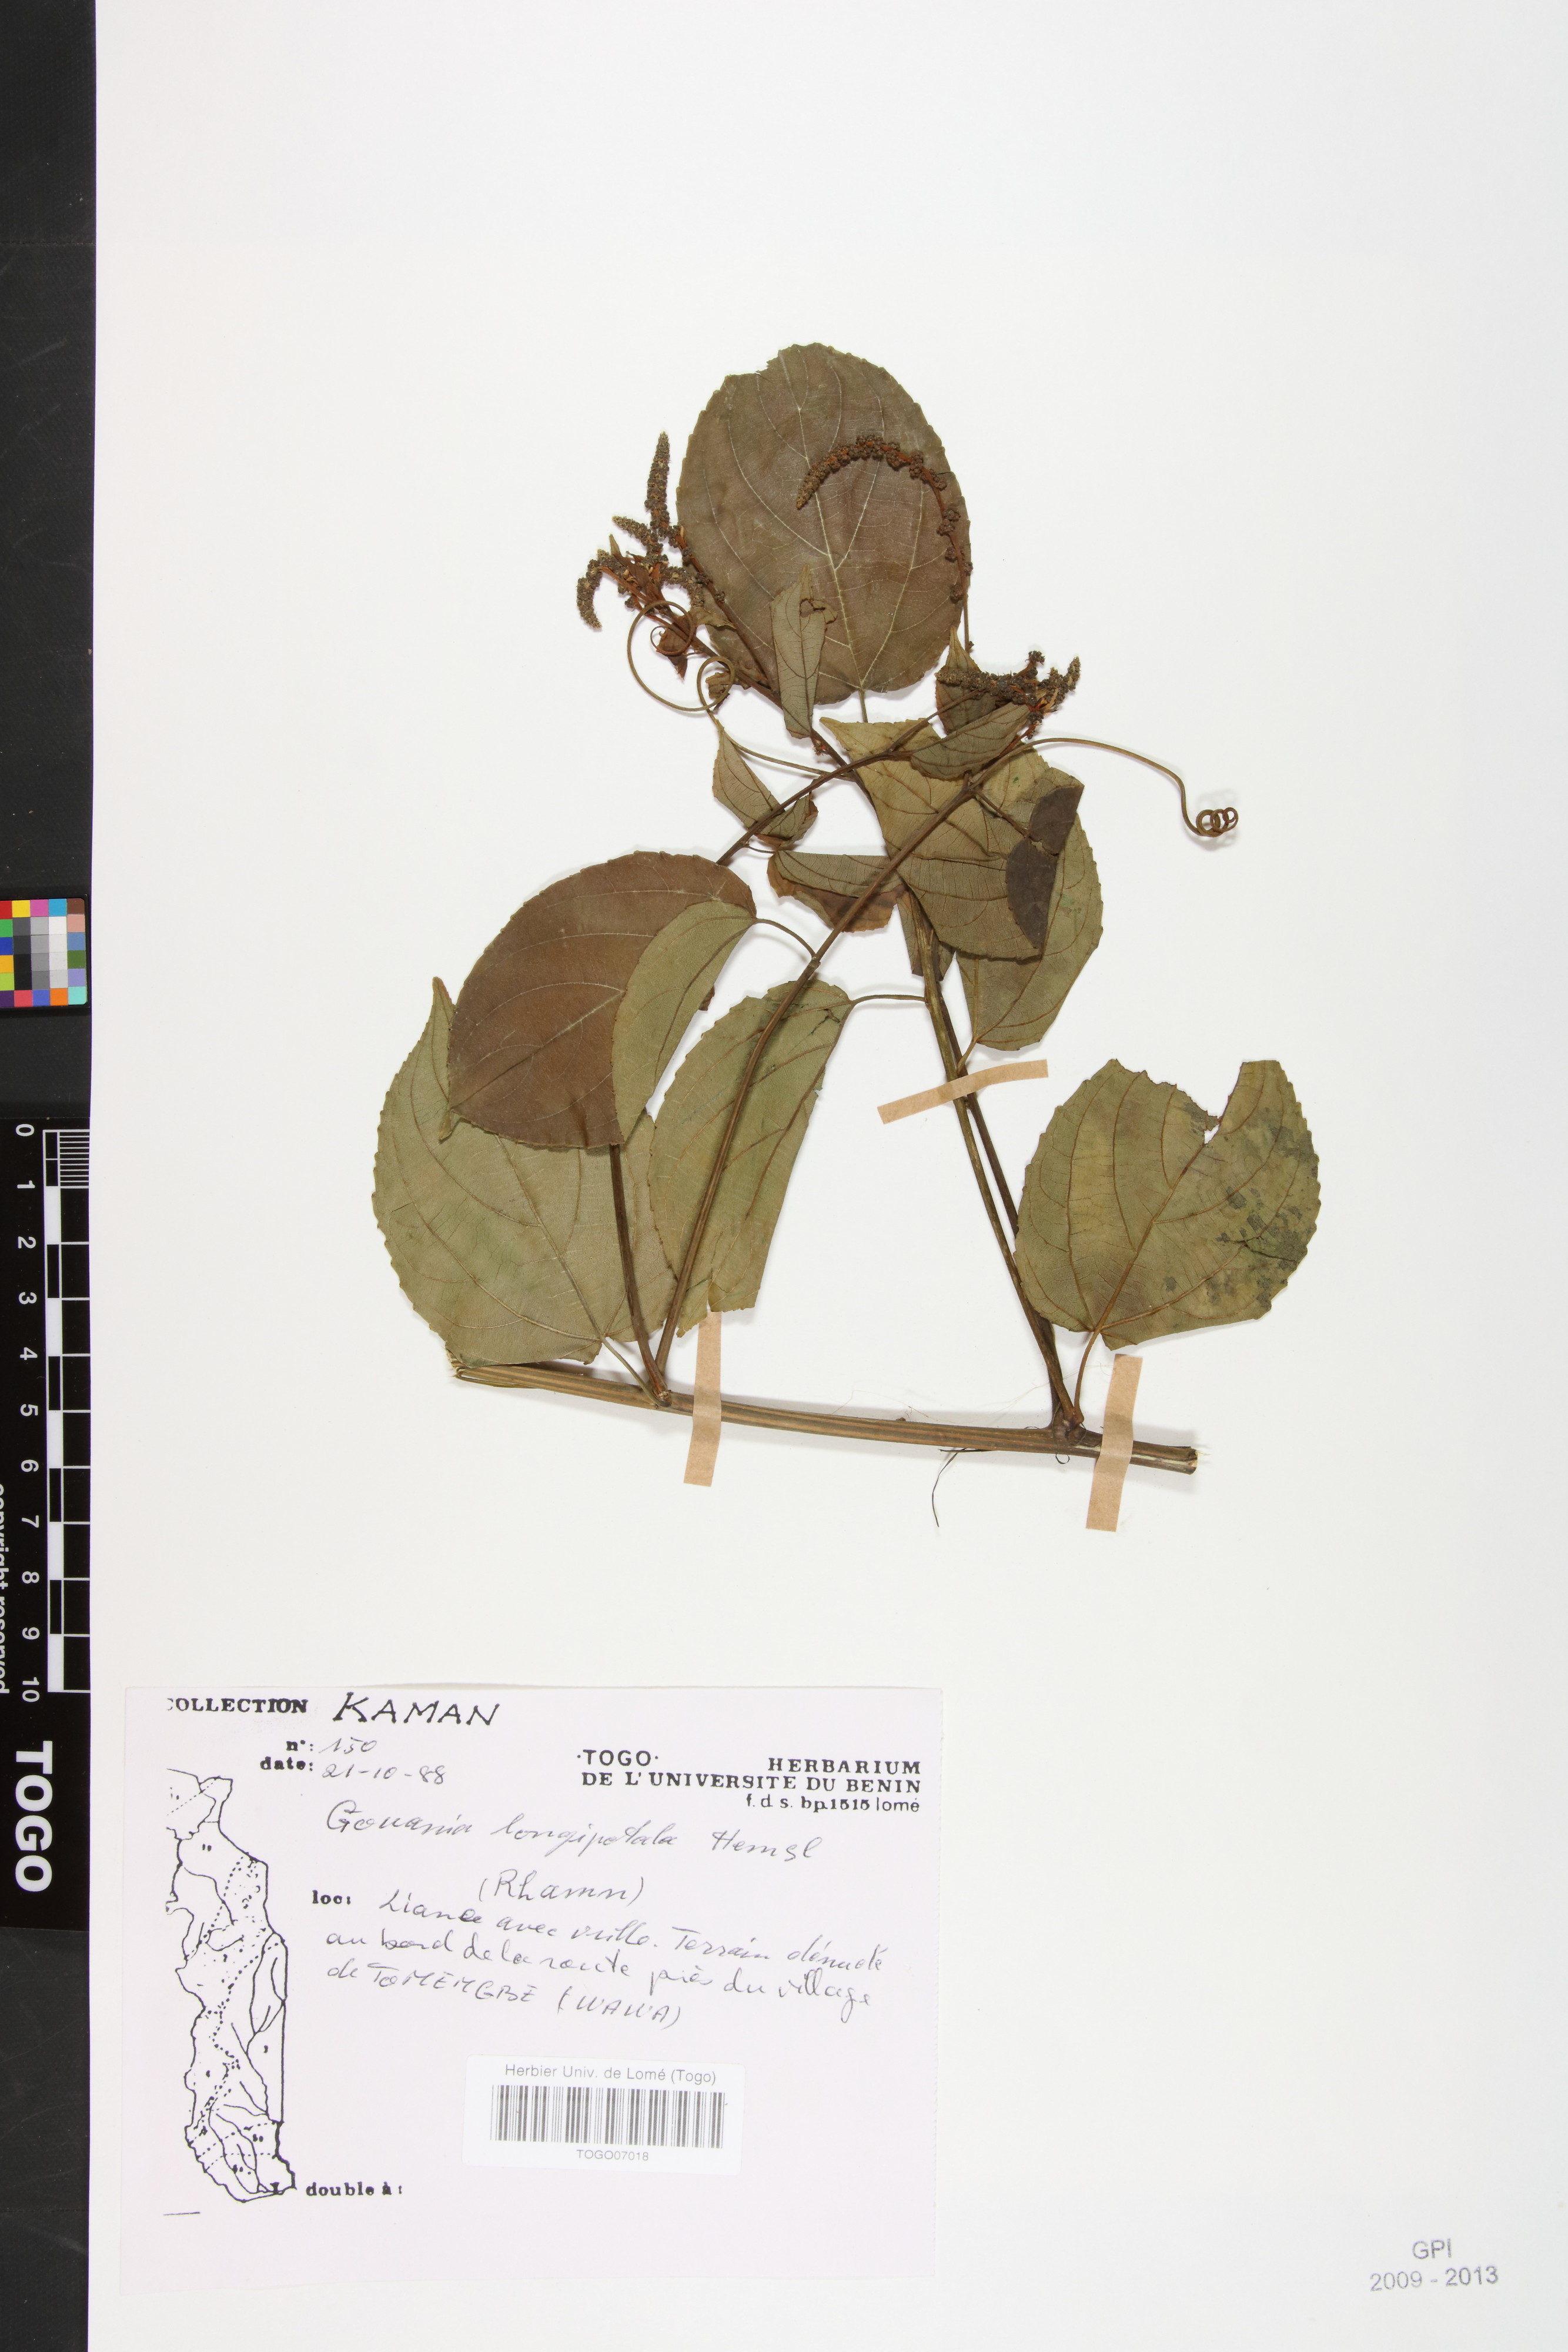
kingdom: Plantae
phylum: Tracheophyta
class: Magnoliopsida
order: Rosales
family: Rhamnaceae
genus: Gouania
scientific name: Gouania longipetala
